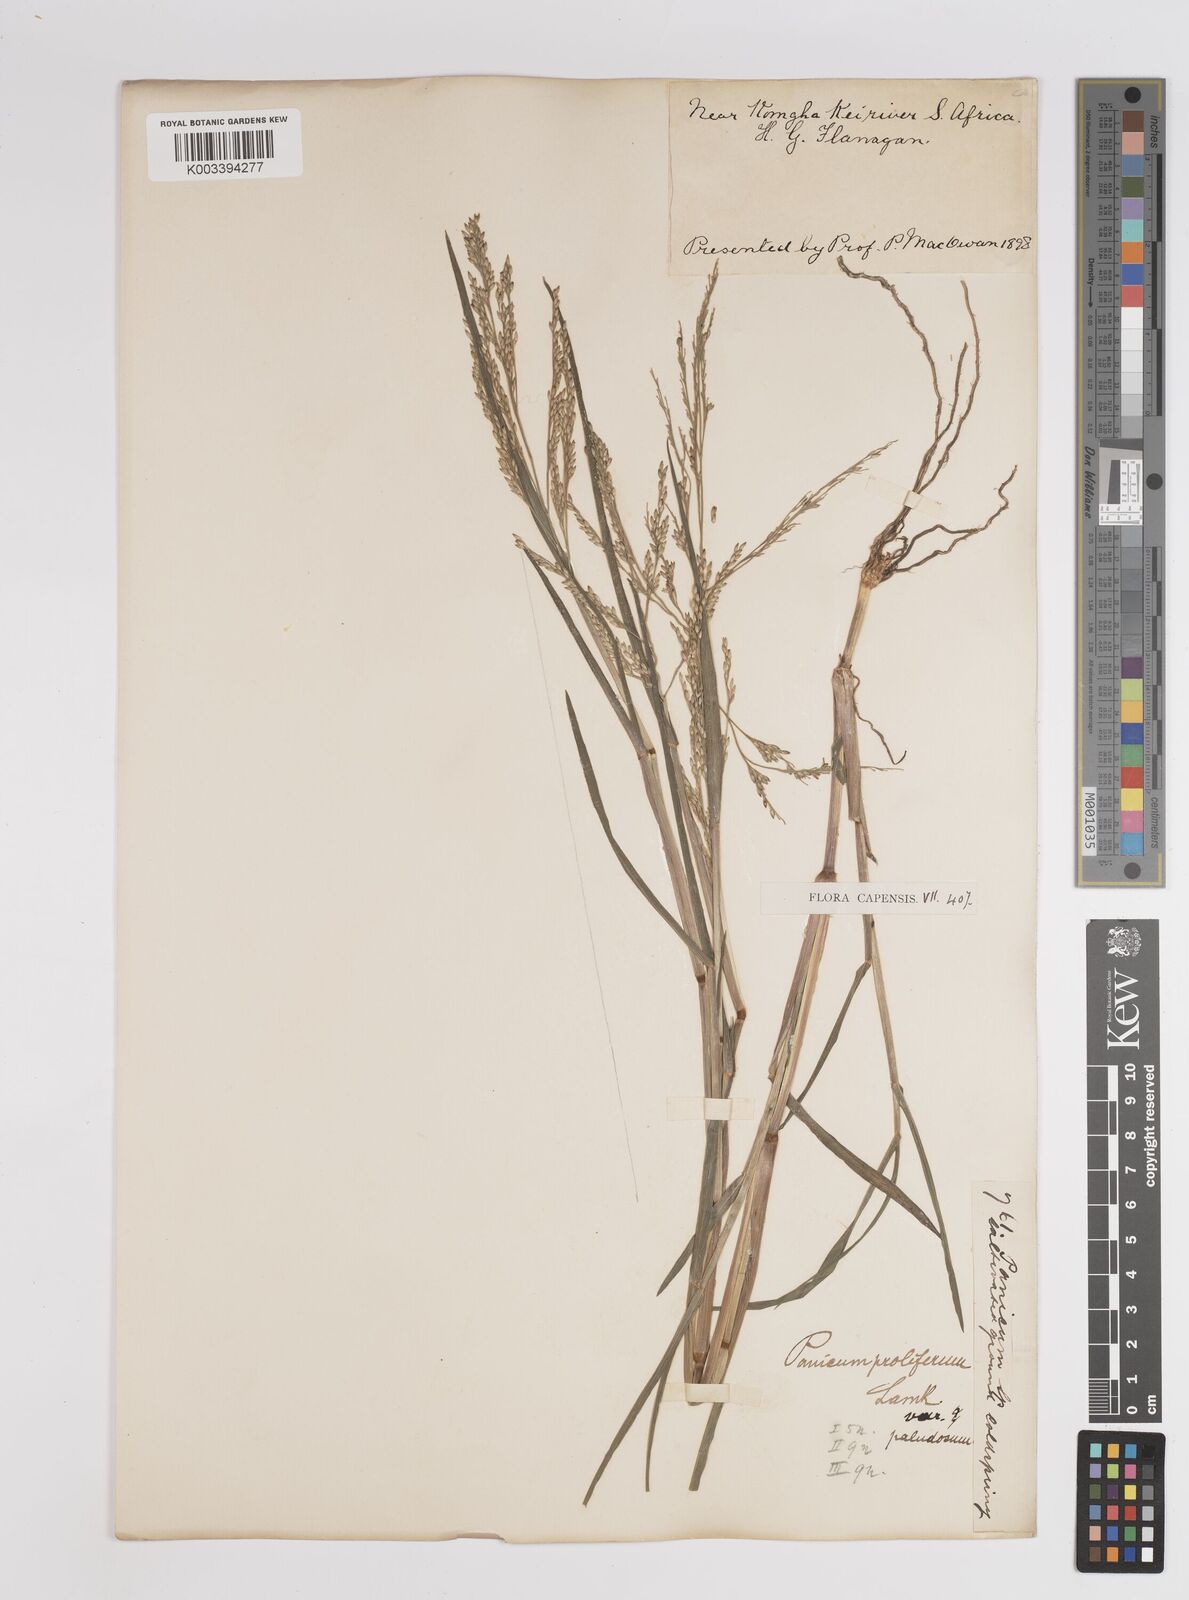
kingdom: Plantae
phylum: Tracheophyta
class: Liliopsida
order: Poales
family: Poaceae
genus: Panicum
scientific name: Panicum subalbidum
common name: Elbow buffalo grass
